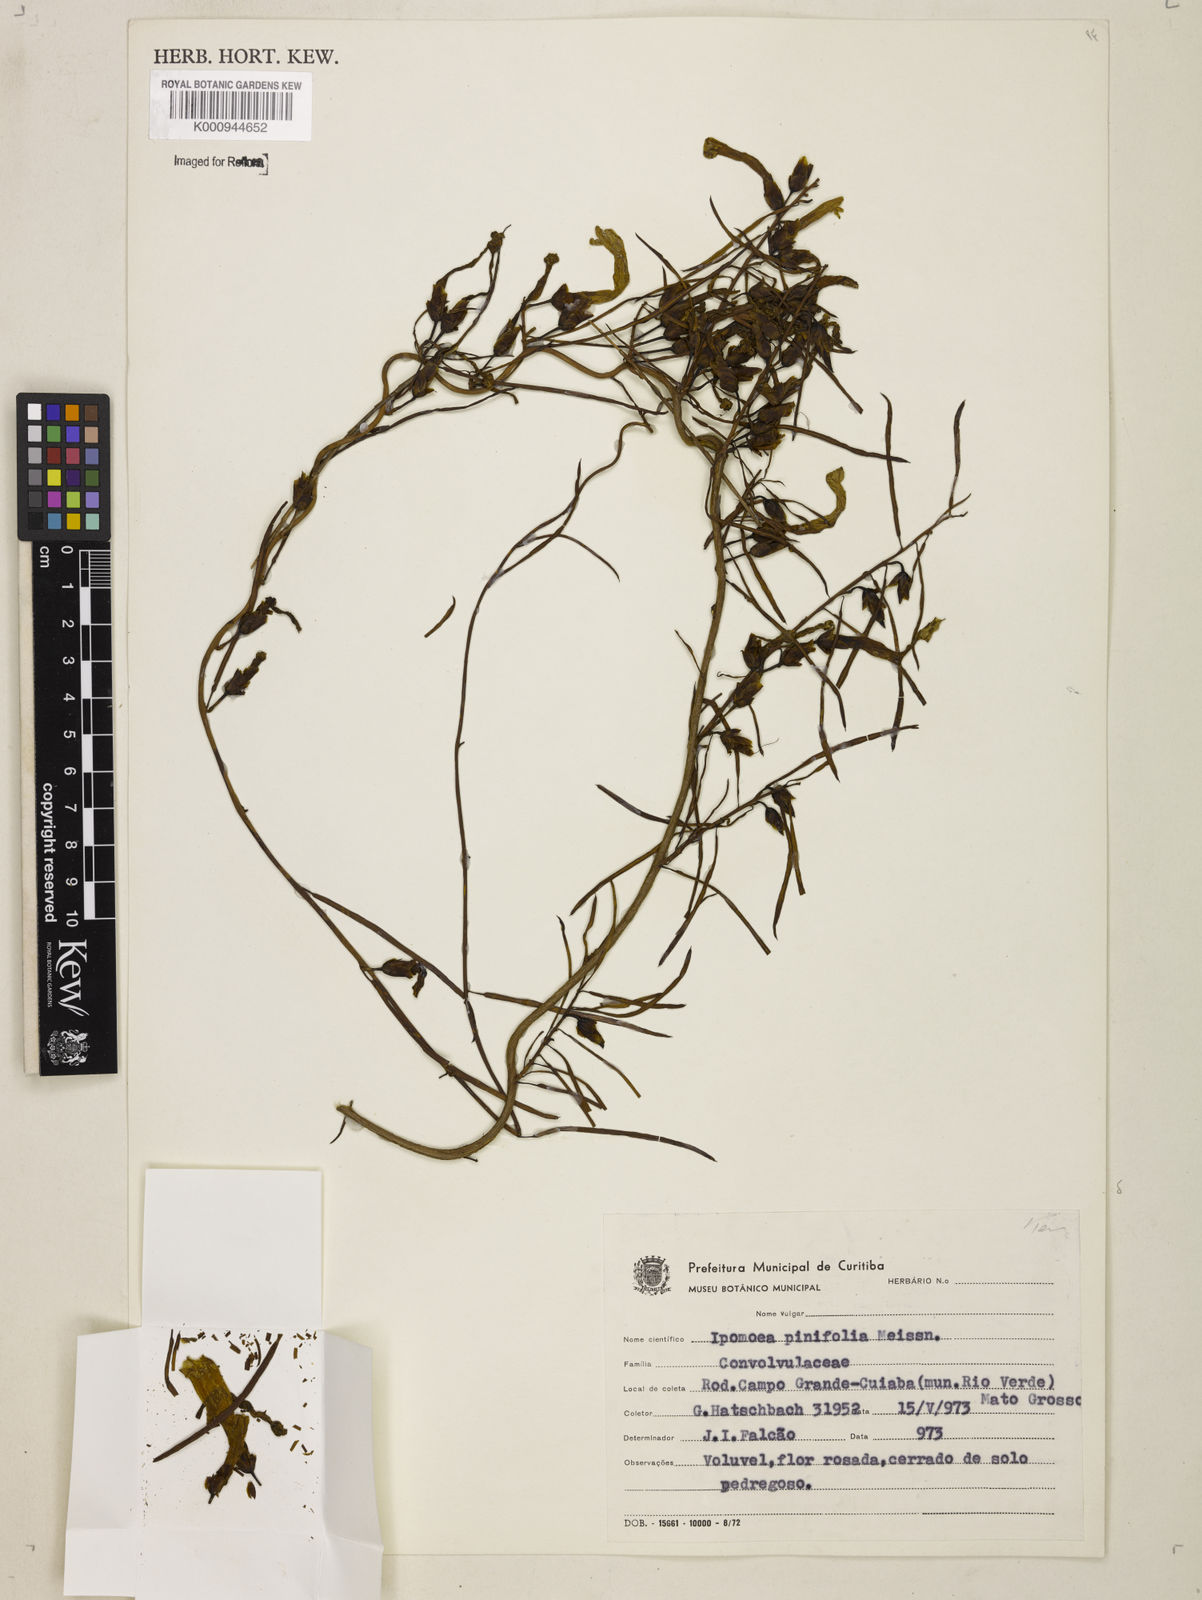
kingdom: Plantae
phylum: Tracheophyta
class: Magnoliopsida
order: Solanales
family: Convolvulaceae
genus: Ipomoea
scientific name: Ipomoea pinifolia
